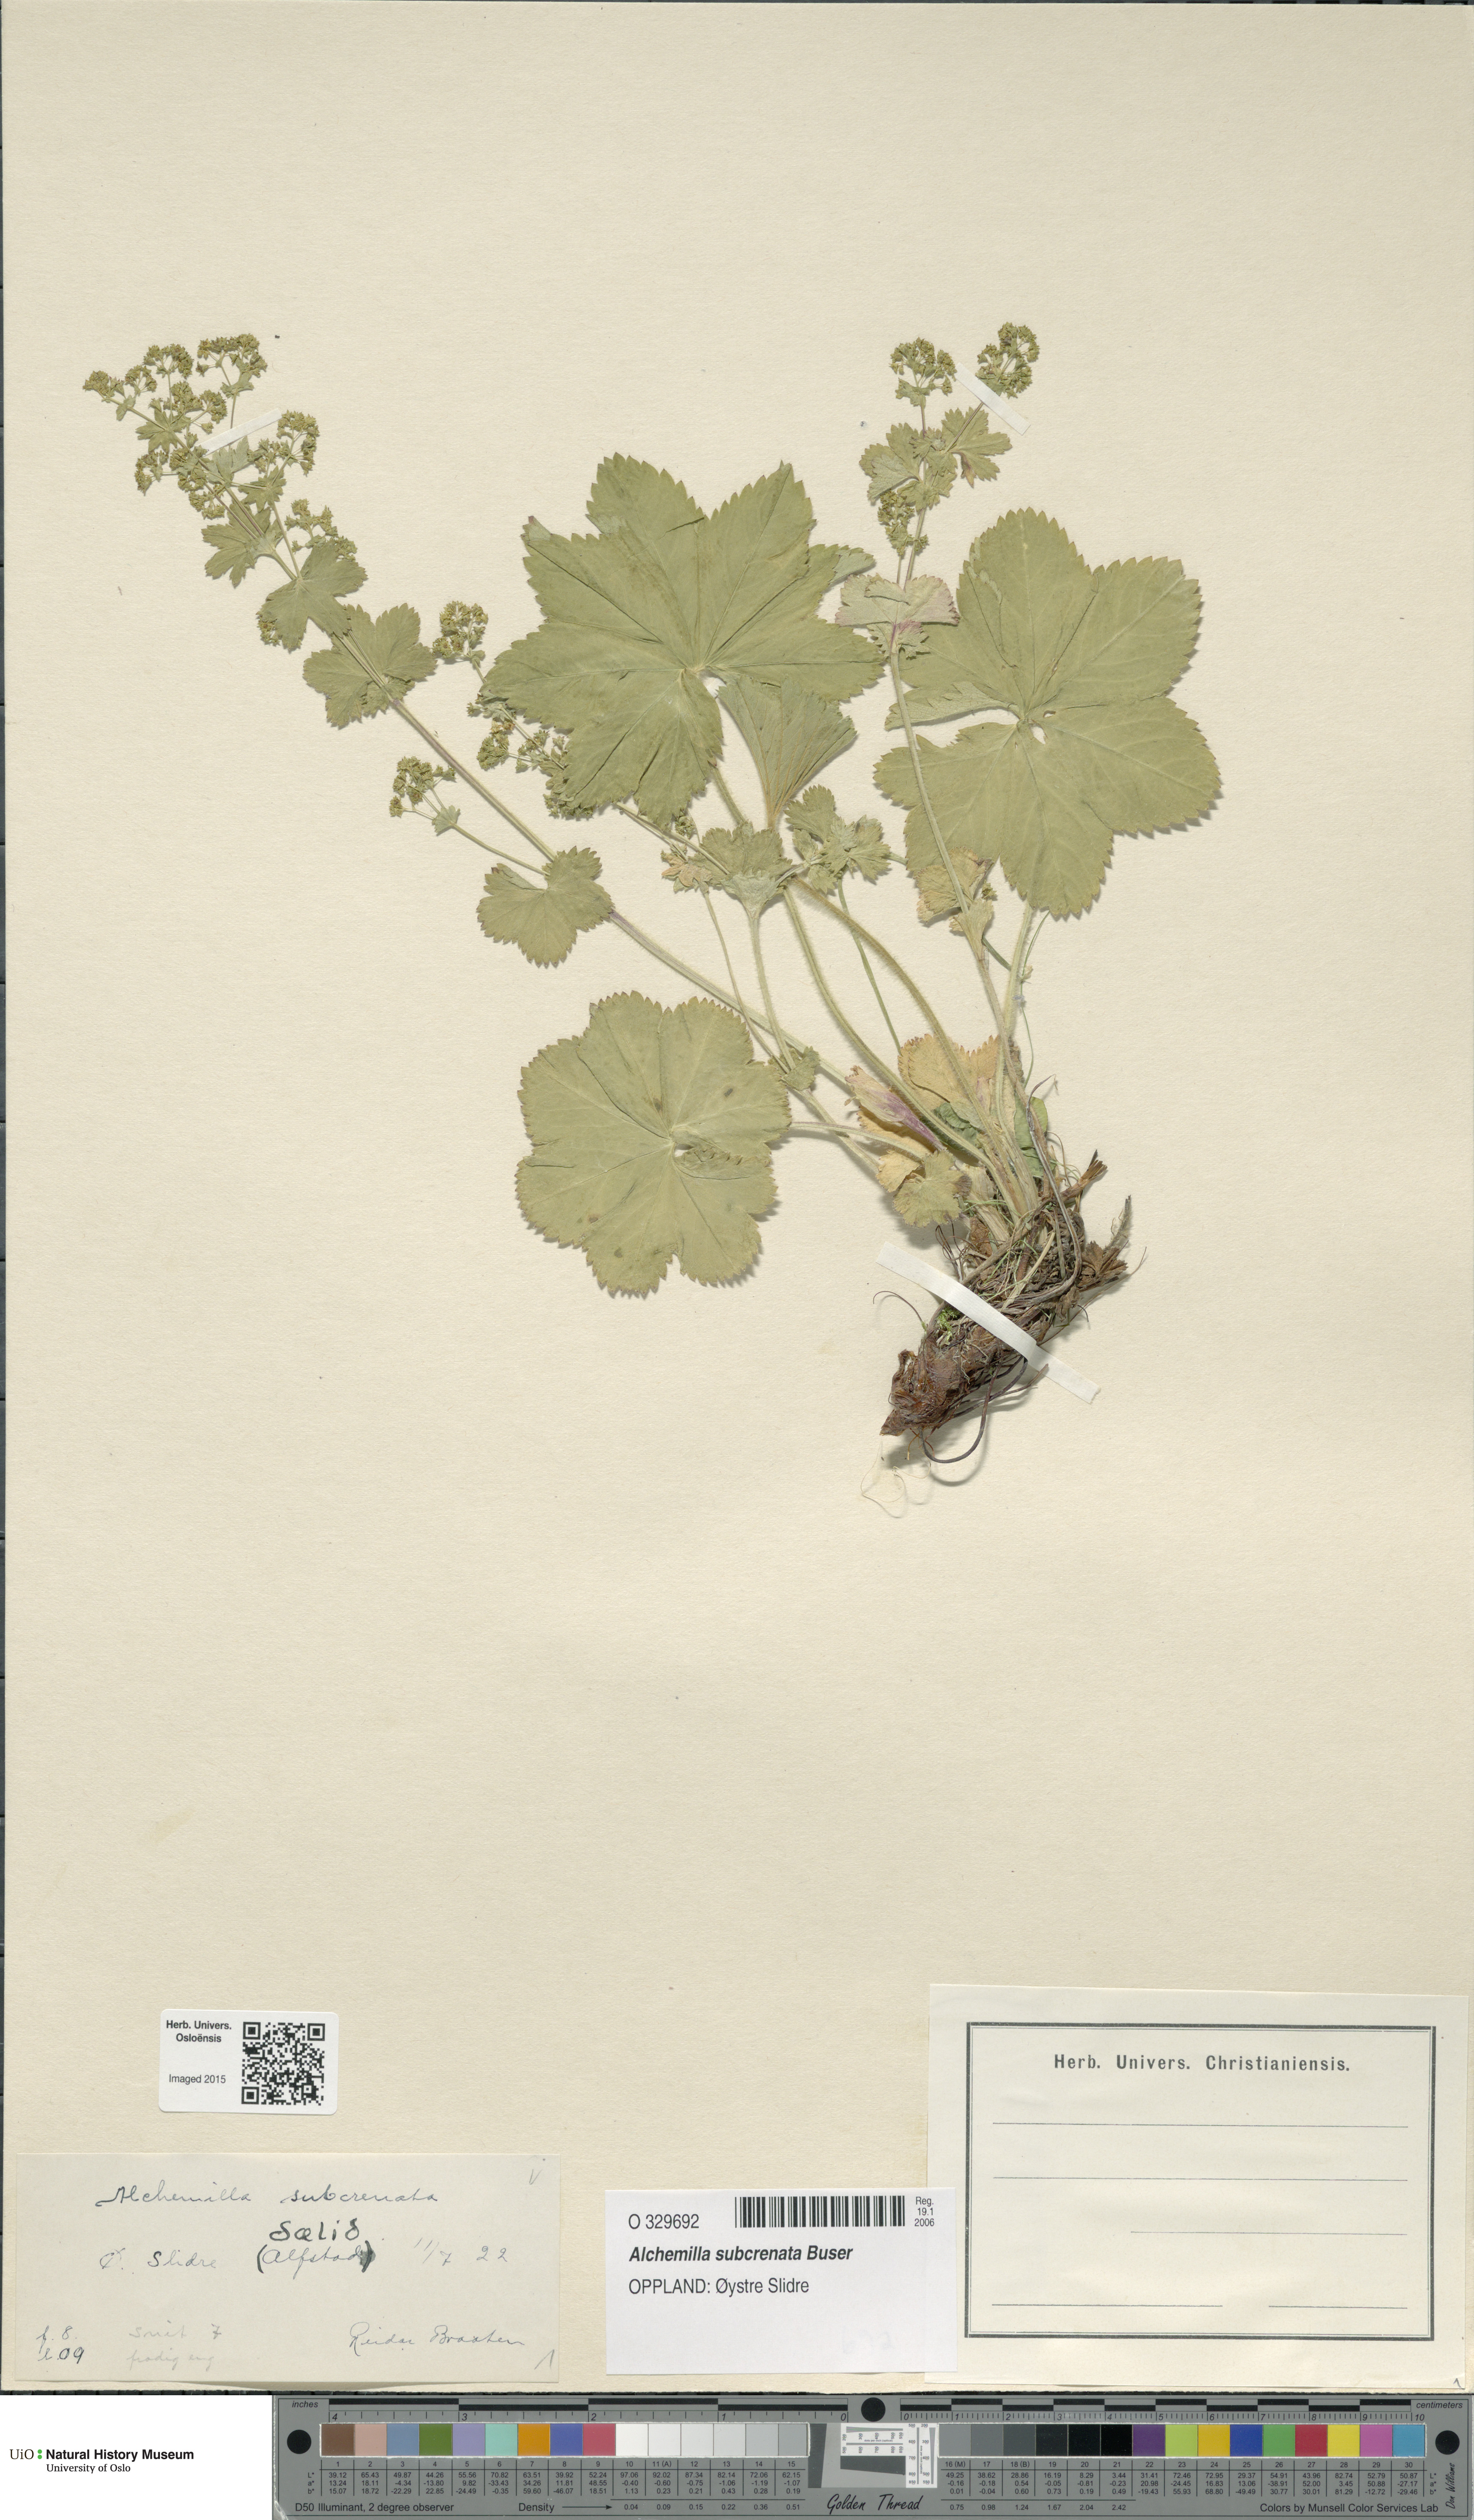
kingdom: Plantae
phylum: Tracheophyta
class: Magnoliopsida
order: Rosales
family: Rosaceae
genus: Alchemilla
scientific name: Alchemilla subcrenata
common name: Broadtooth lady's mantle
